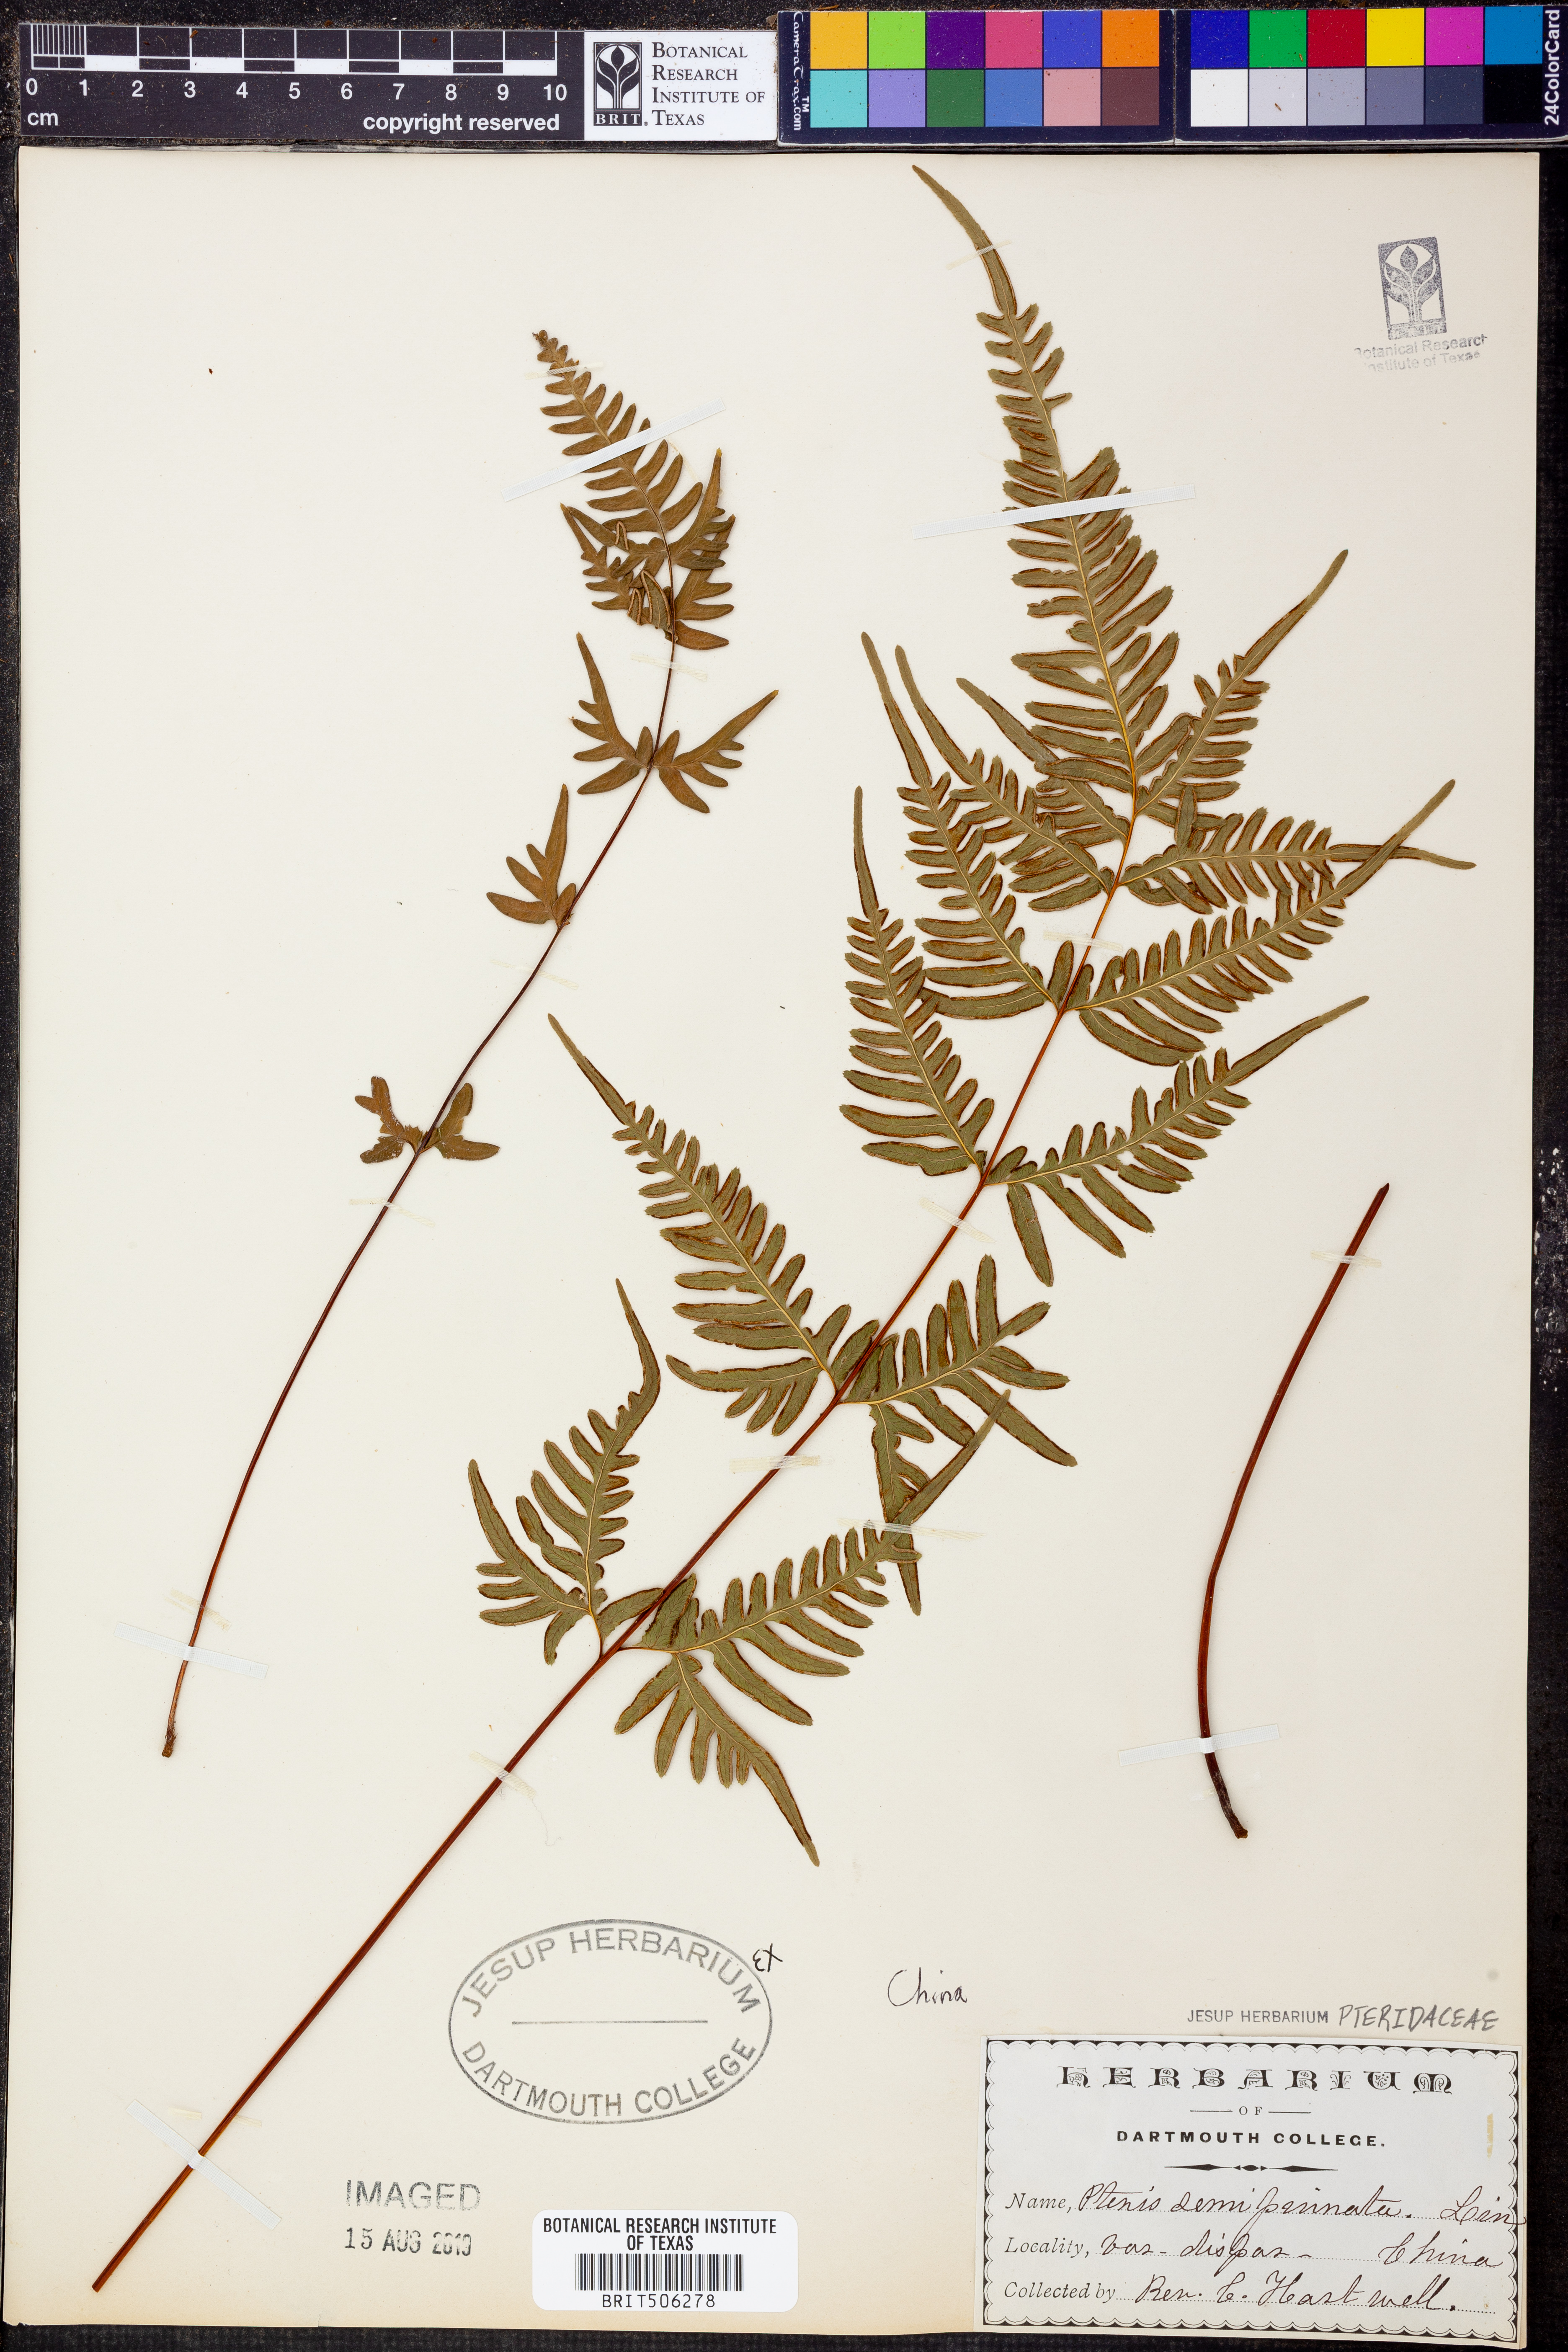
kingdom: Plantae
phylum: Tracheophyta
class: Polypodiopsida
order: Polypodiales
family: Pteridaceae
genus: Pteris
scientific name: Pteris semipinnata
